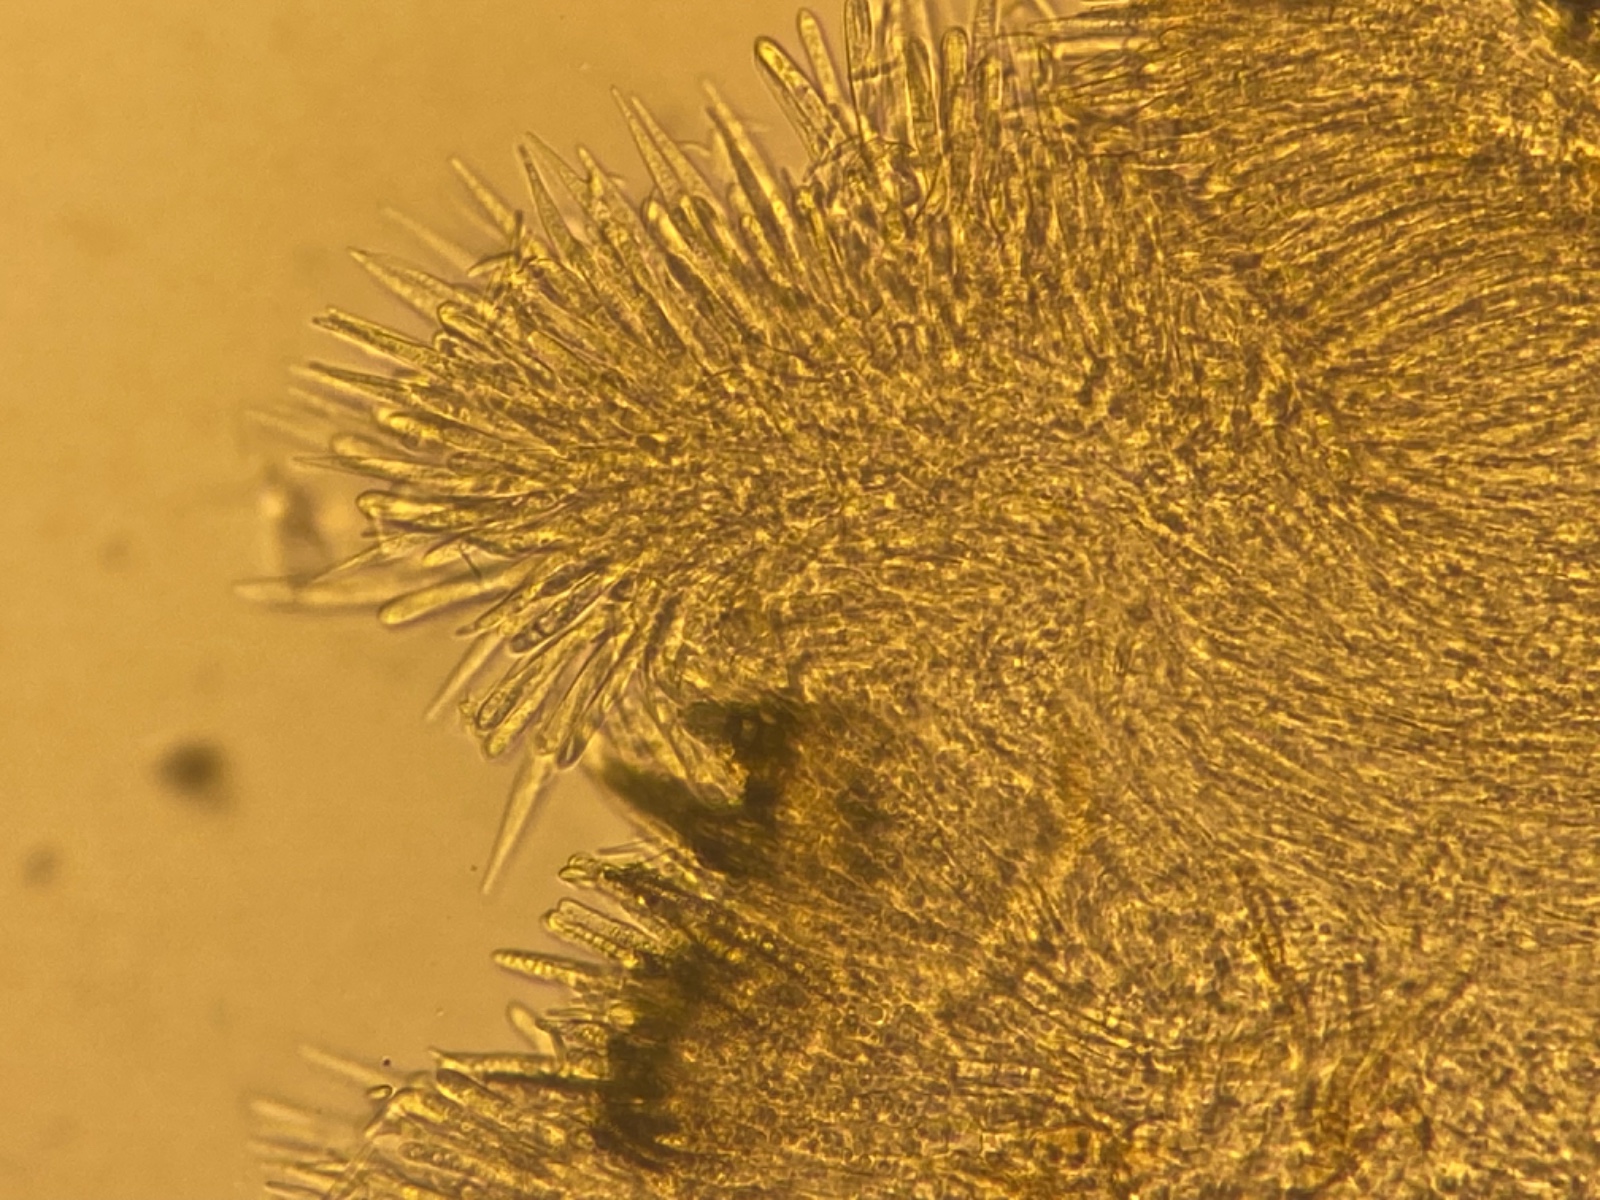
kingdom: Fungi
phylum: Ascomycota
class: Leotiomycetes
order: Helotiales
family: Lachnaceae
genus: Lachnum
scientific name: Lachnum tenuipilosum
